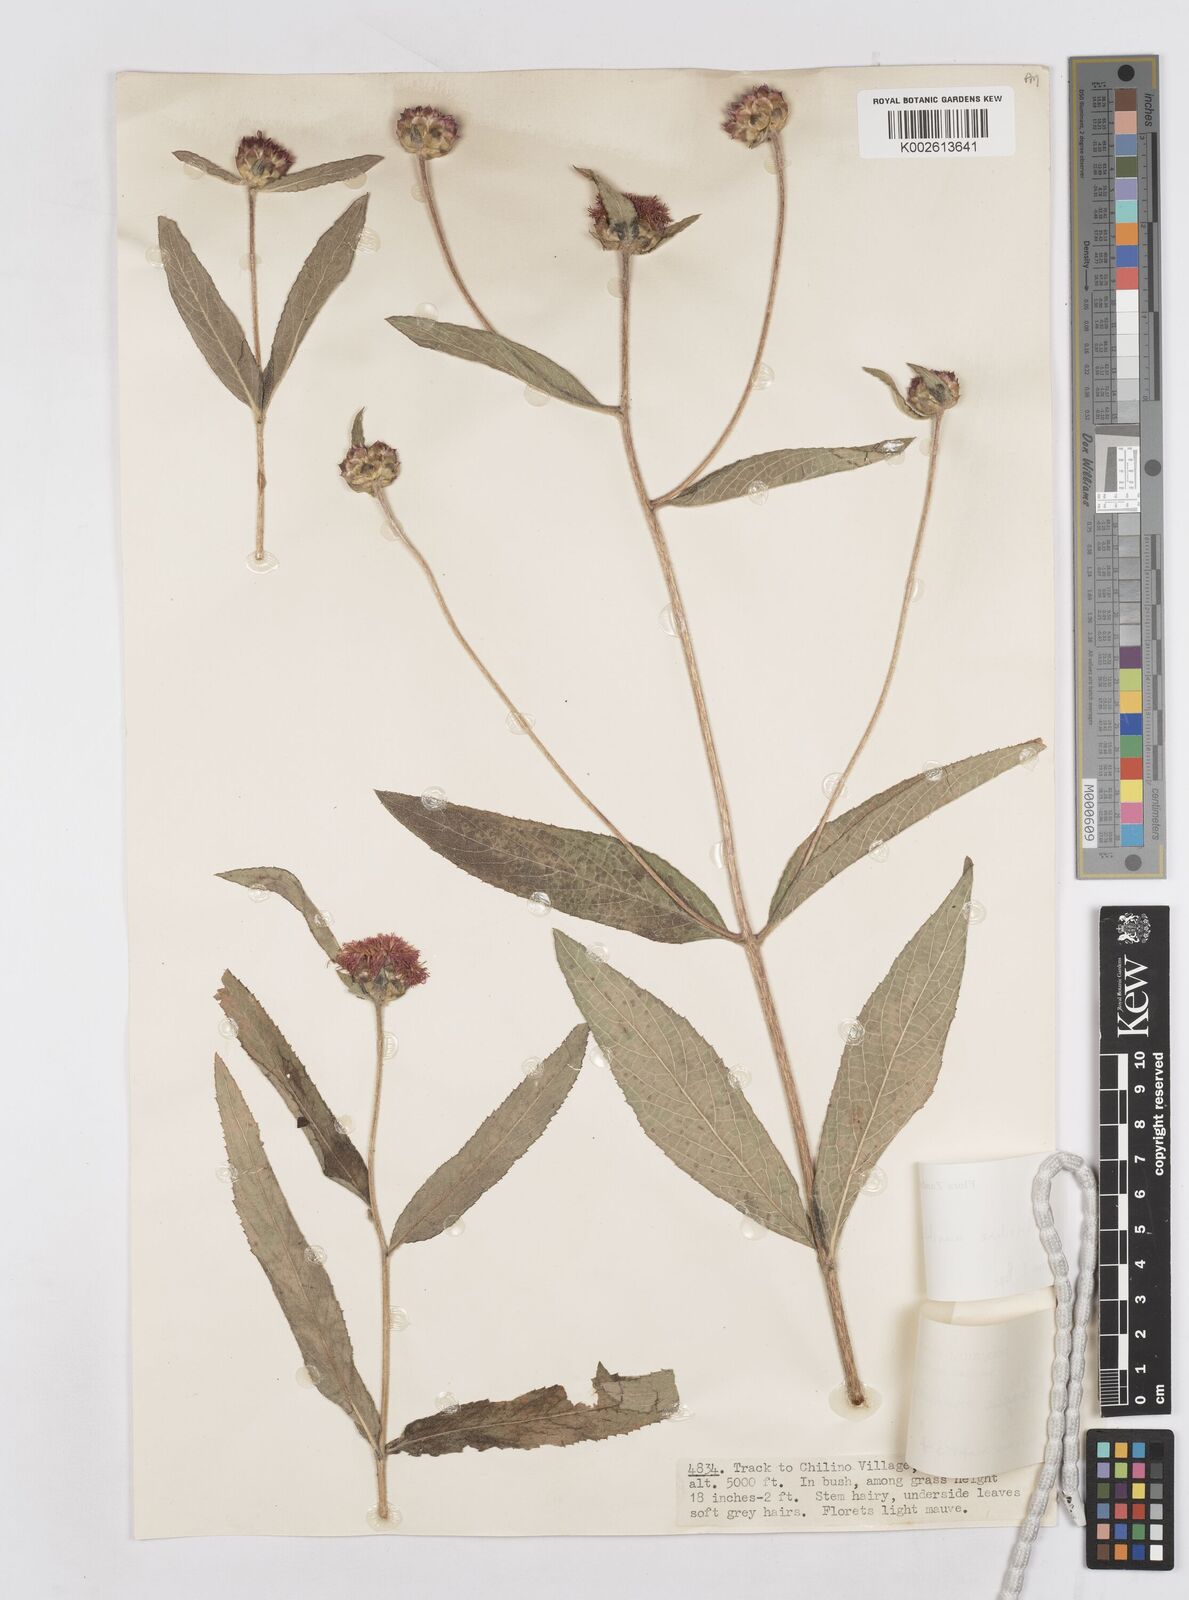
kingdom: Plantae
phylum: Tracheophyta
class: Magnoliopsida
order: Asterales
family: Asteraceae
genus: Bothriocline
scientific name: Bothriocline muschleriana
